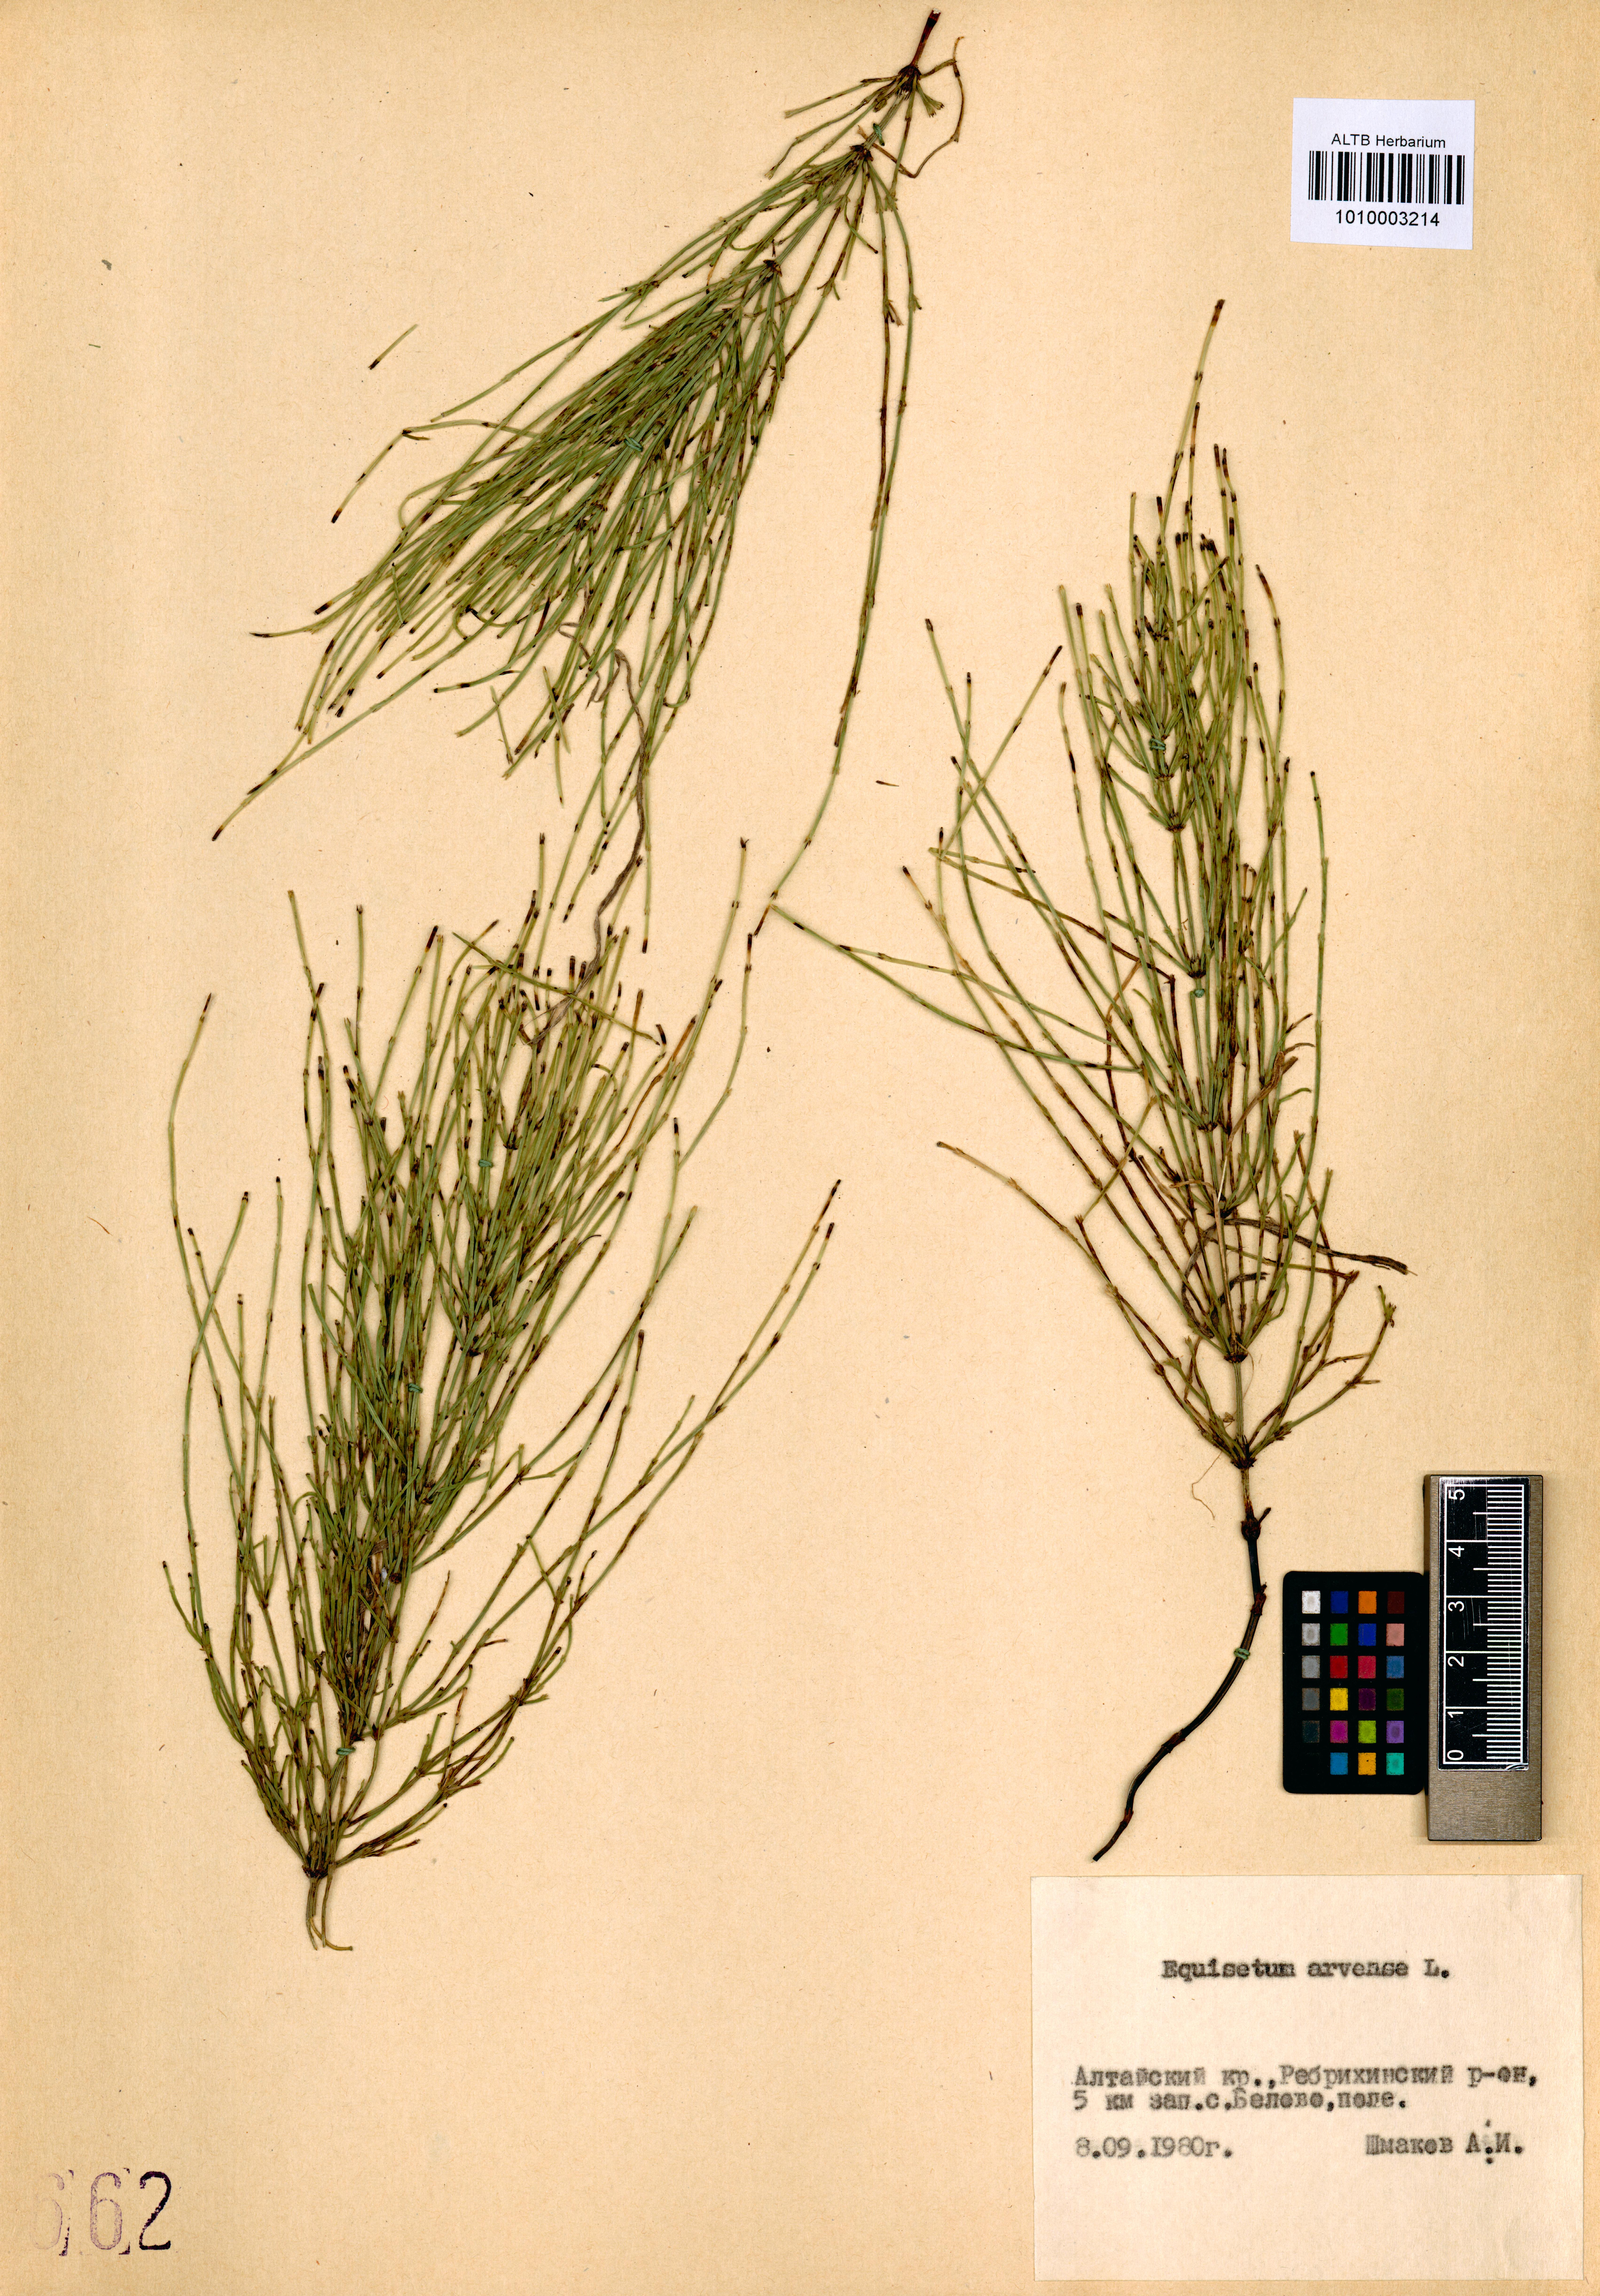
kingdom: Plantae
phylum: Tracheophyta
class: Polypodiopsida
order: Equisetales
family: Equisetaceae
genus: Equisetum
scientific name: Equisetum arvense
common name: Field horsetail
